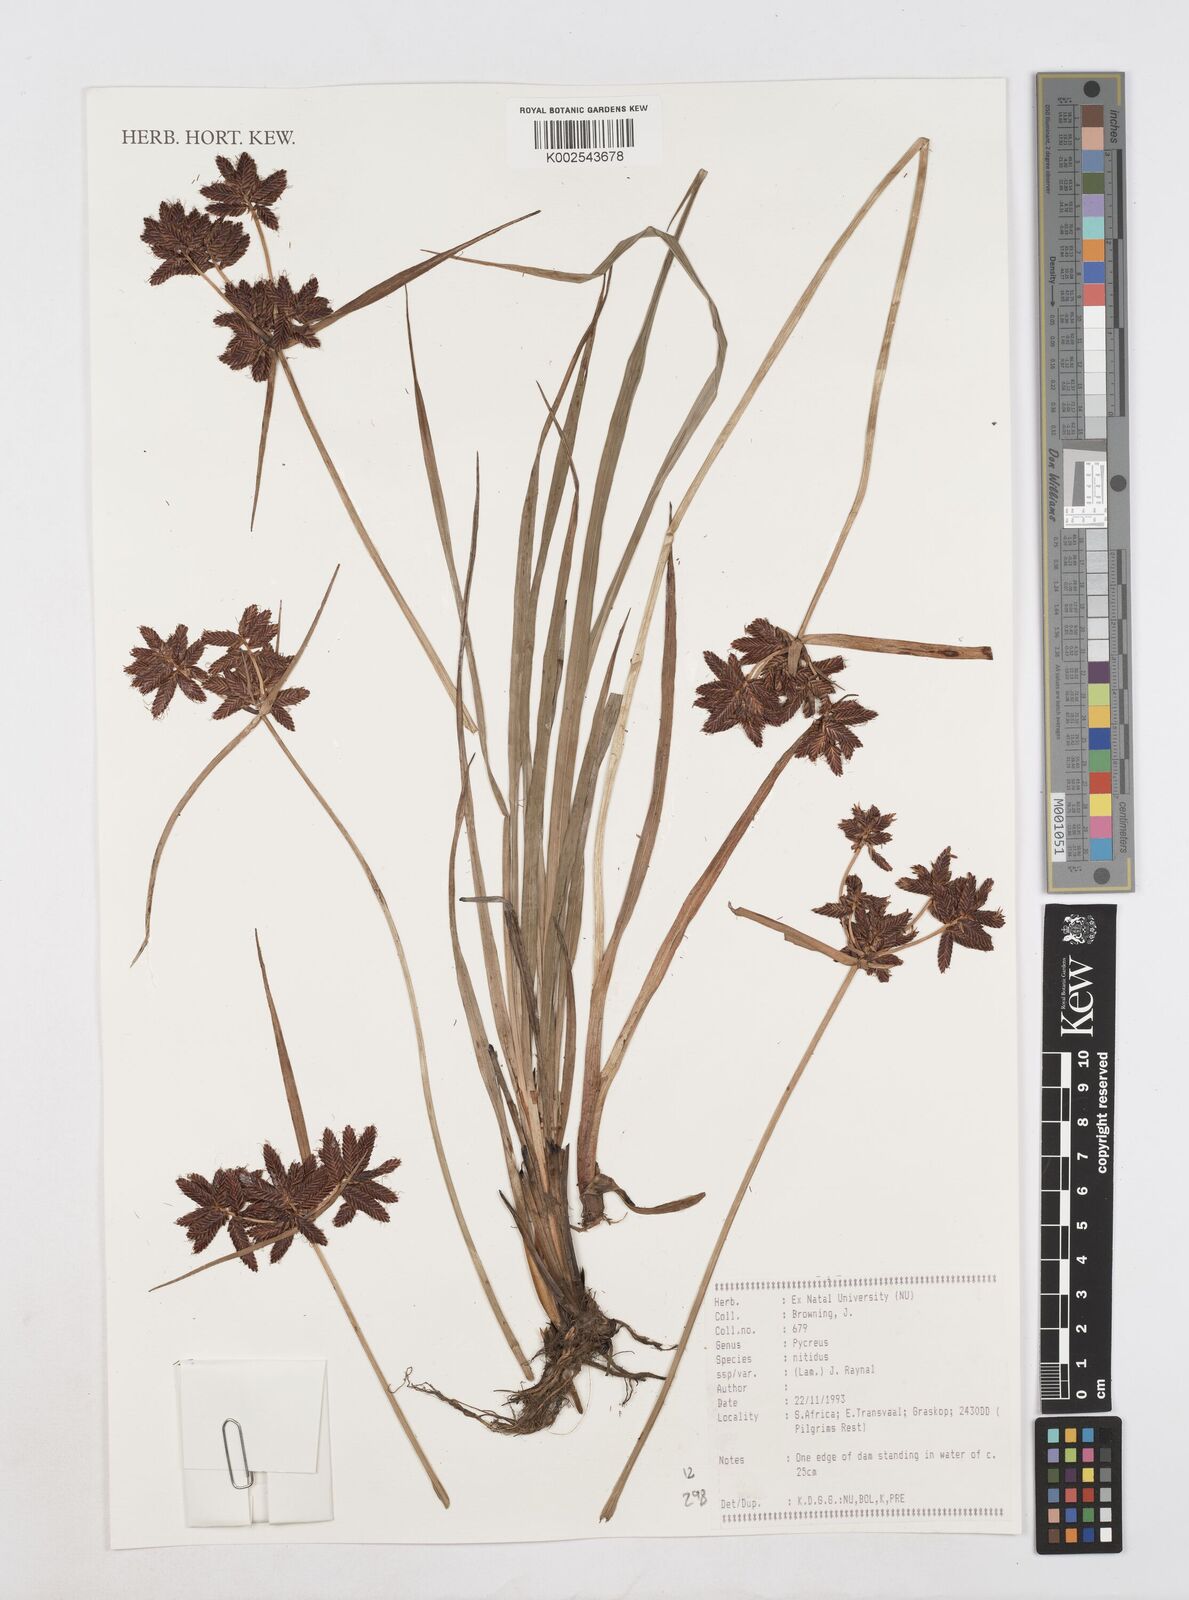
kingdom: Plantae
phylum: Tracheophyta
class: Liliopsida
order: Poales
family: Cyperaceae
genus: Cyperus
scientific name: Cyperus nitidus
